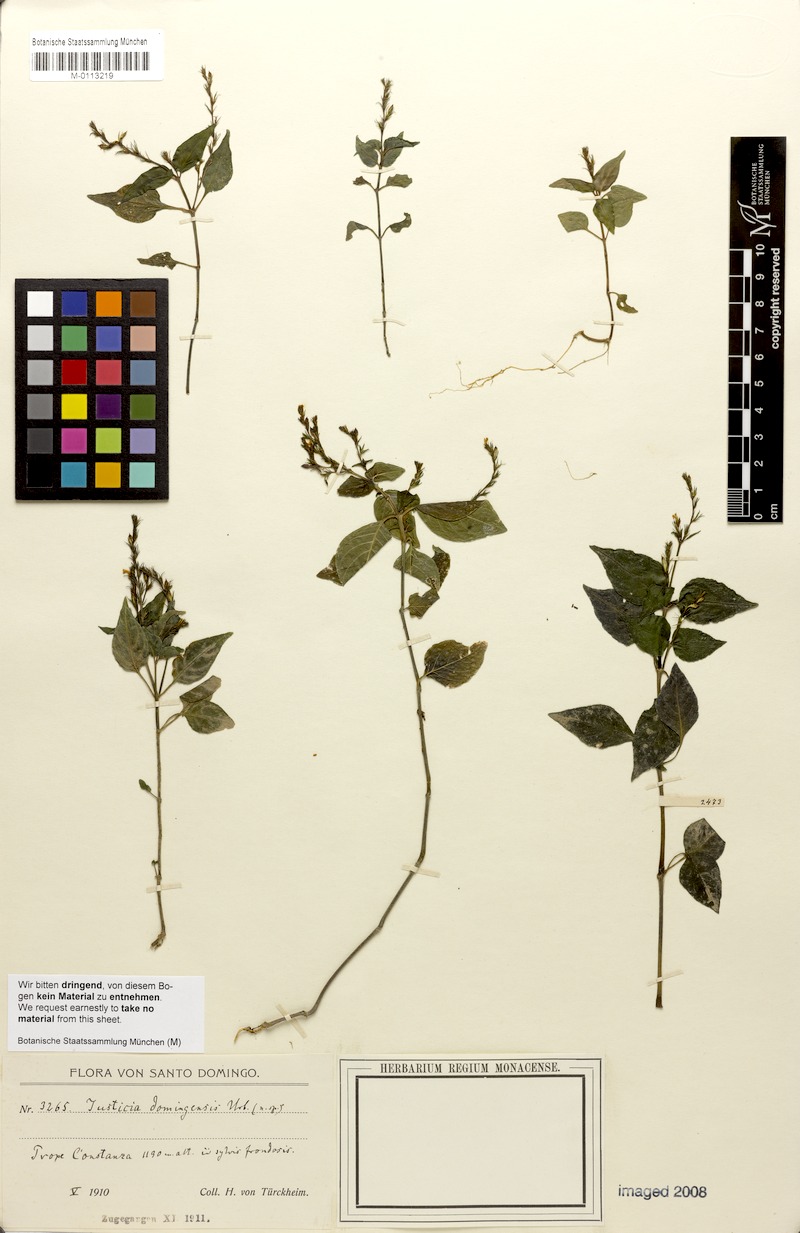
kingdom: Plantae
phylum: Tracheophyta
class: Magnoliopsida
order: Lamiales
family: Acanthaceae
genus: Justicia
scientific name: Justicia
